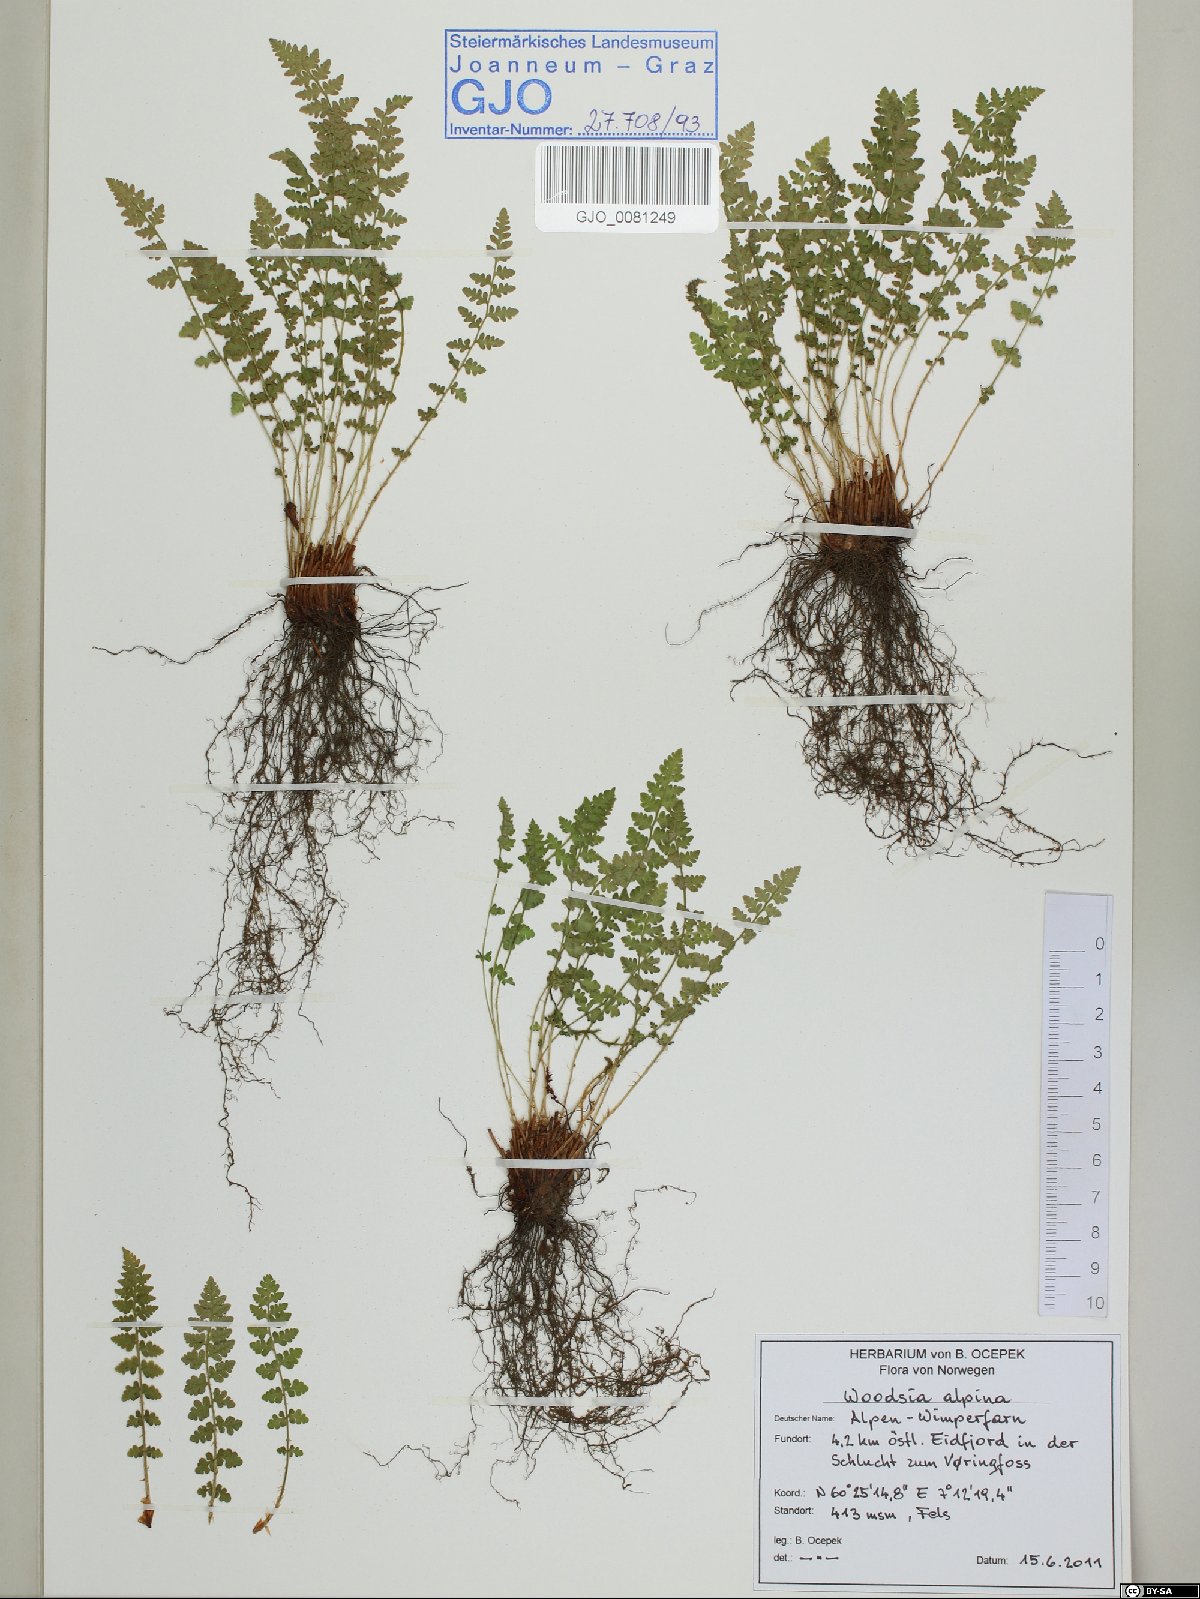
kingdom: Plantae
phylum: Tracheophyta
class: Polypodiopsida
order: Polypodiales
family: Woodsiaceae
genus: Woodsia
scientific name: Woodsia alpina
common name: Alpine woodsia
